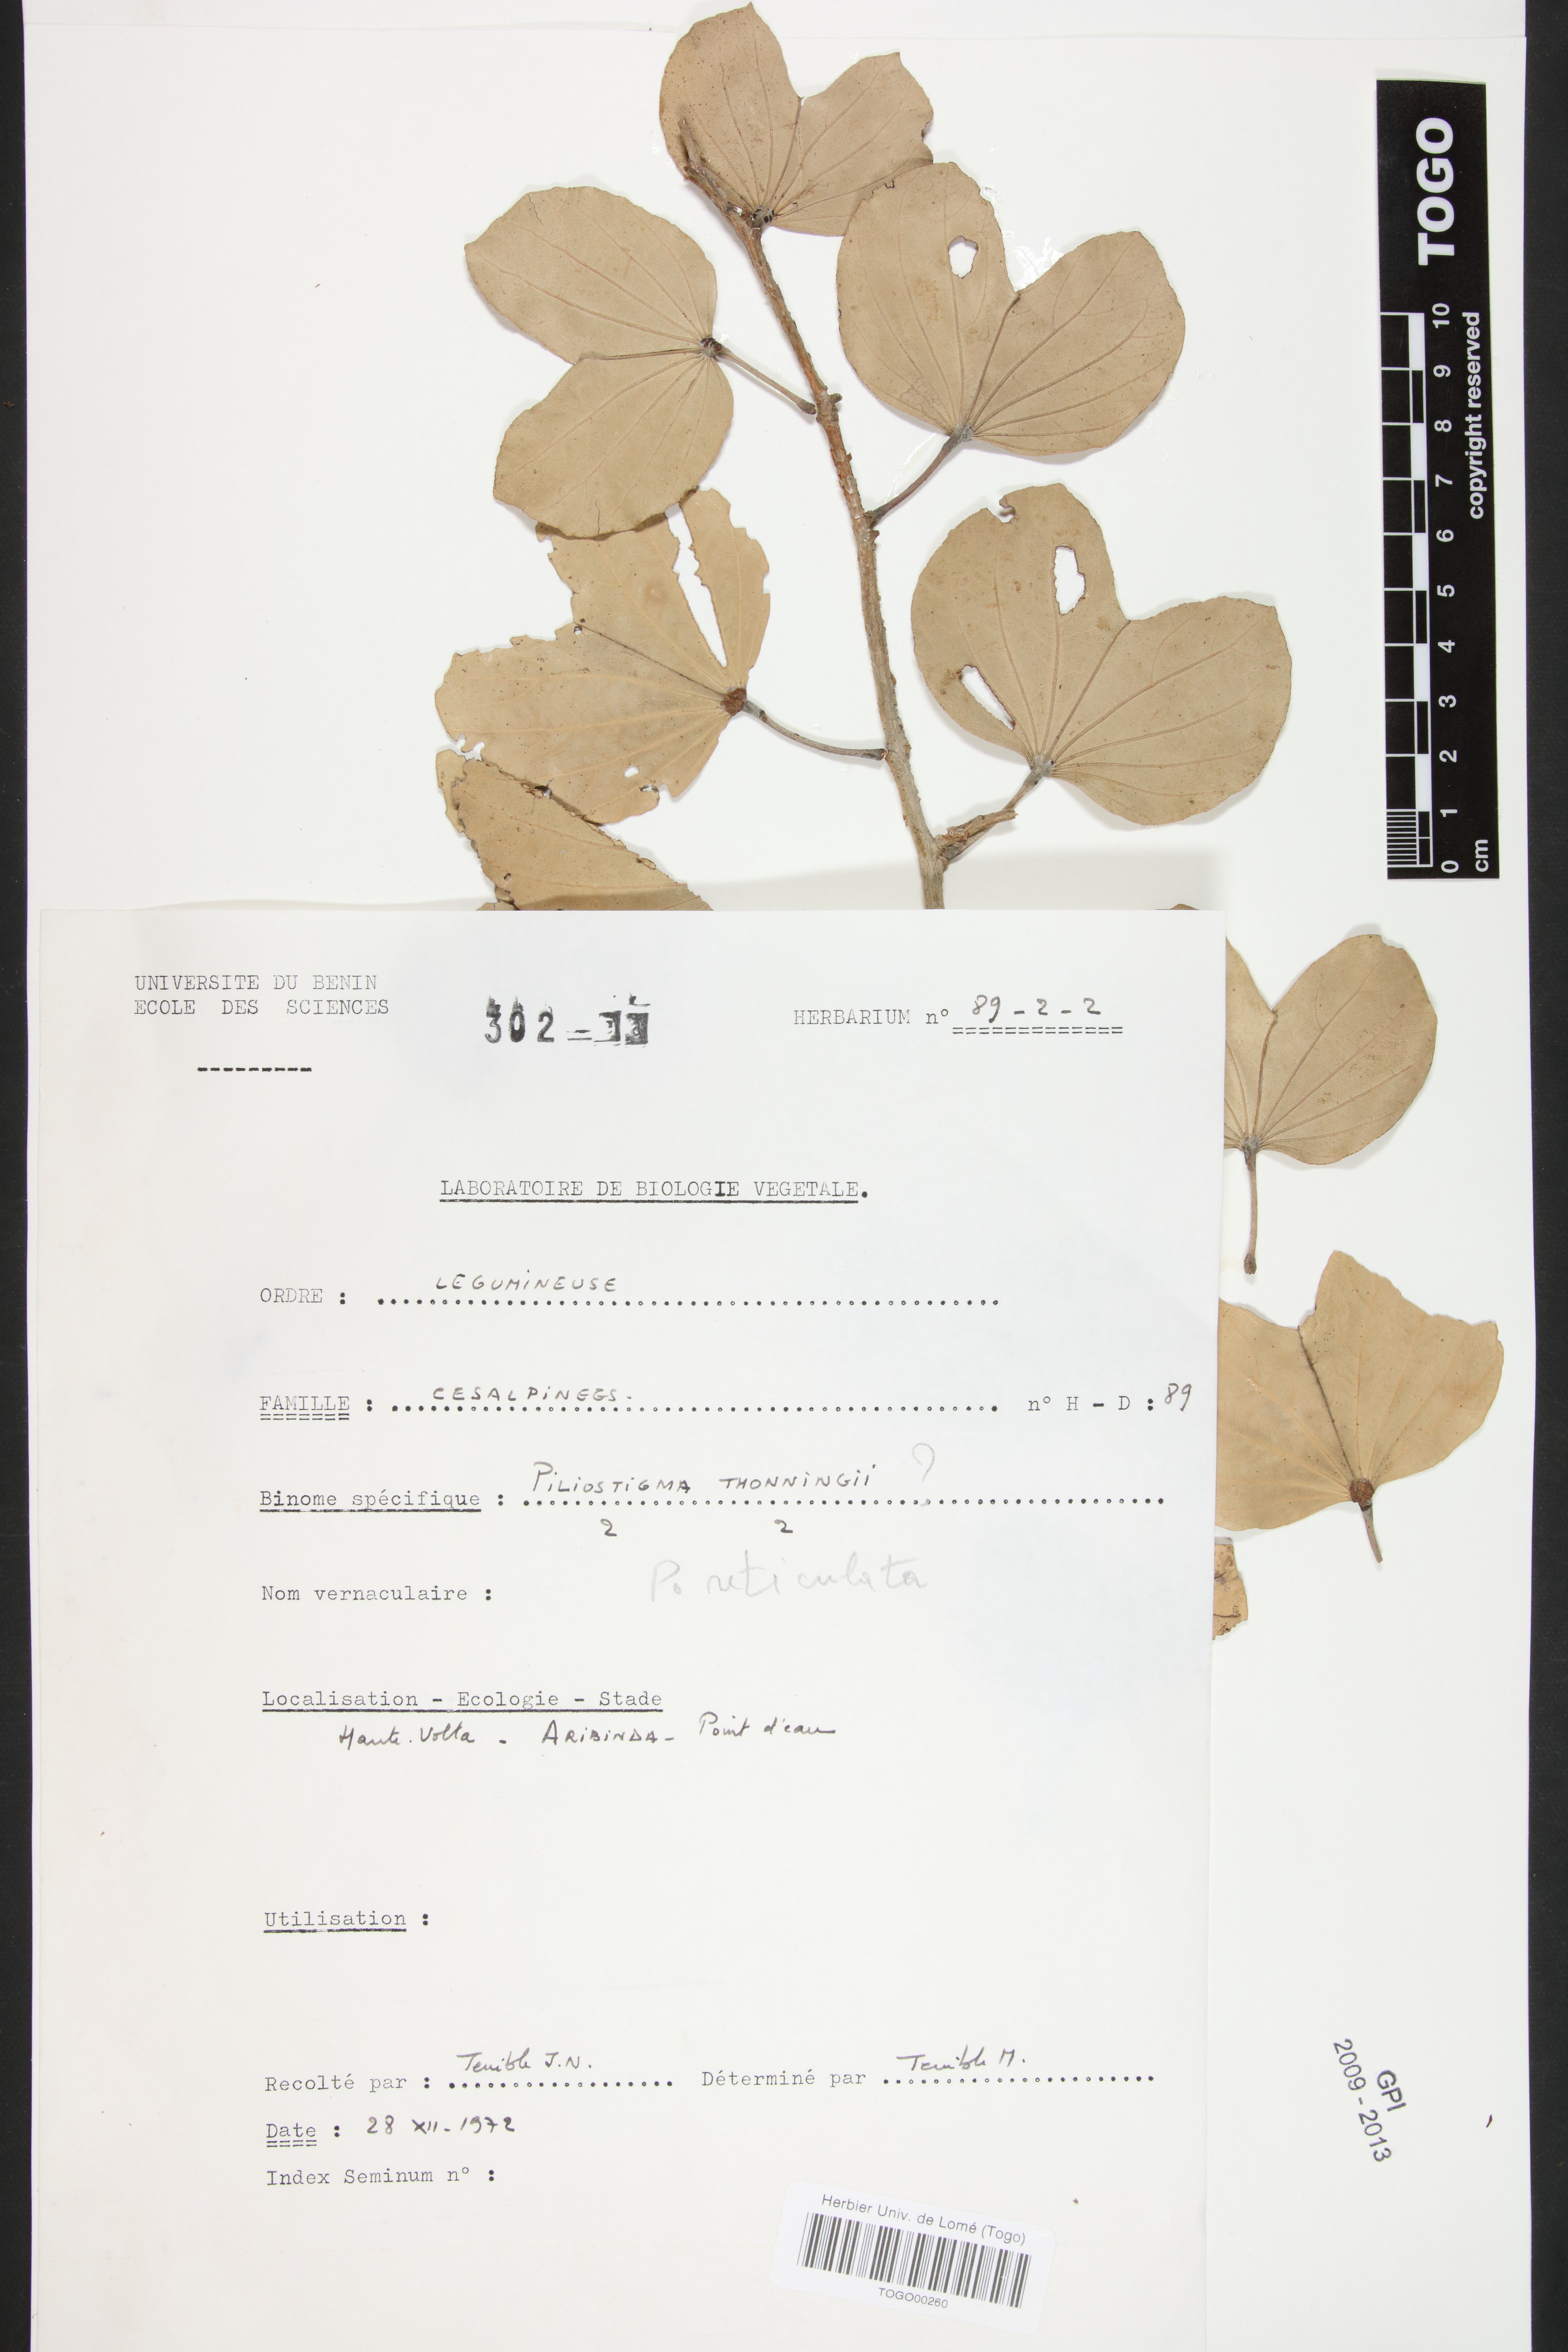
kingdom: Plantae
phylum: Tracheophyta
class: Magnoliopsida
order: Fabales
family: Fabaceae
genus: Piliostigma
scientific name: Piliostigma thonningii
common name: Kao
